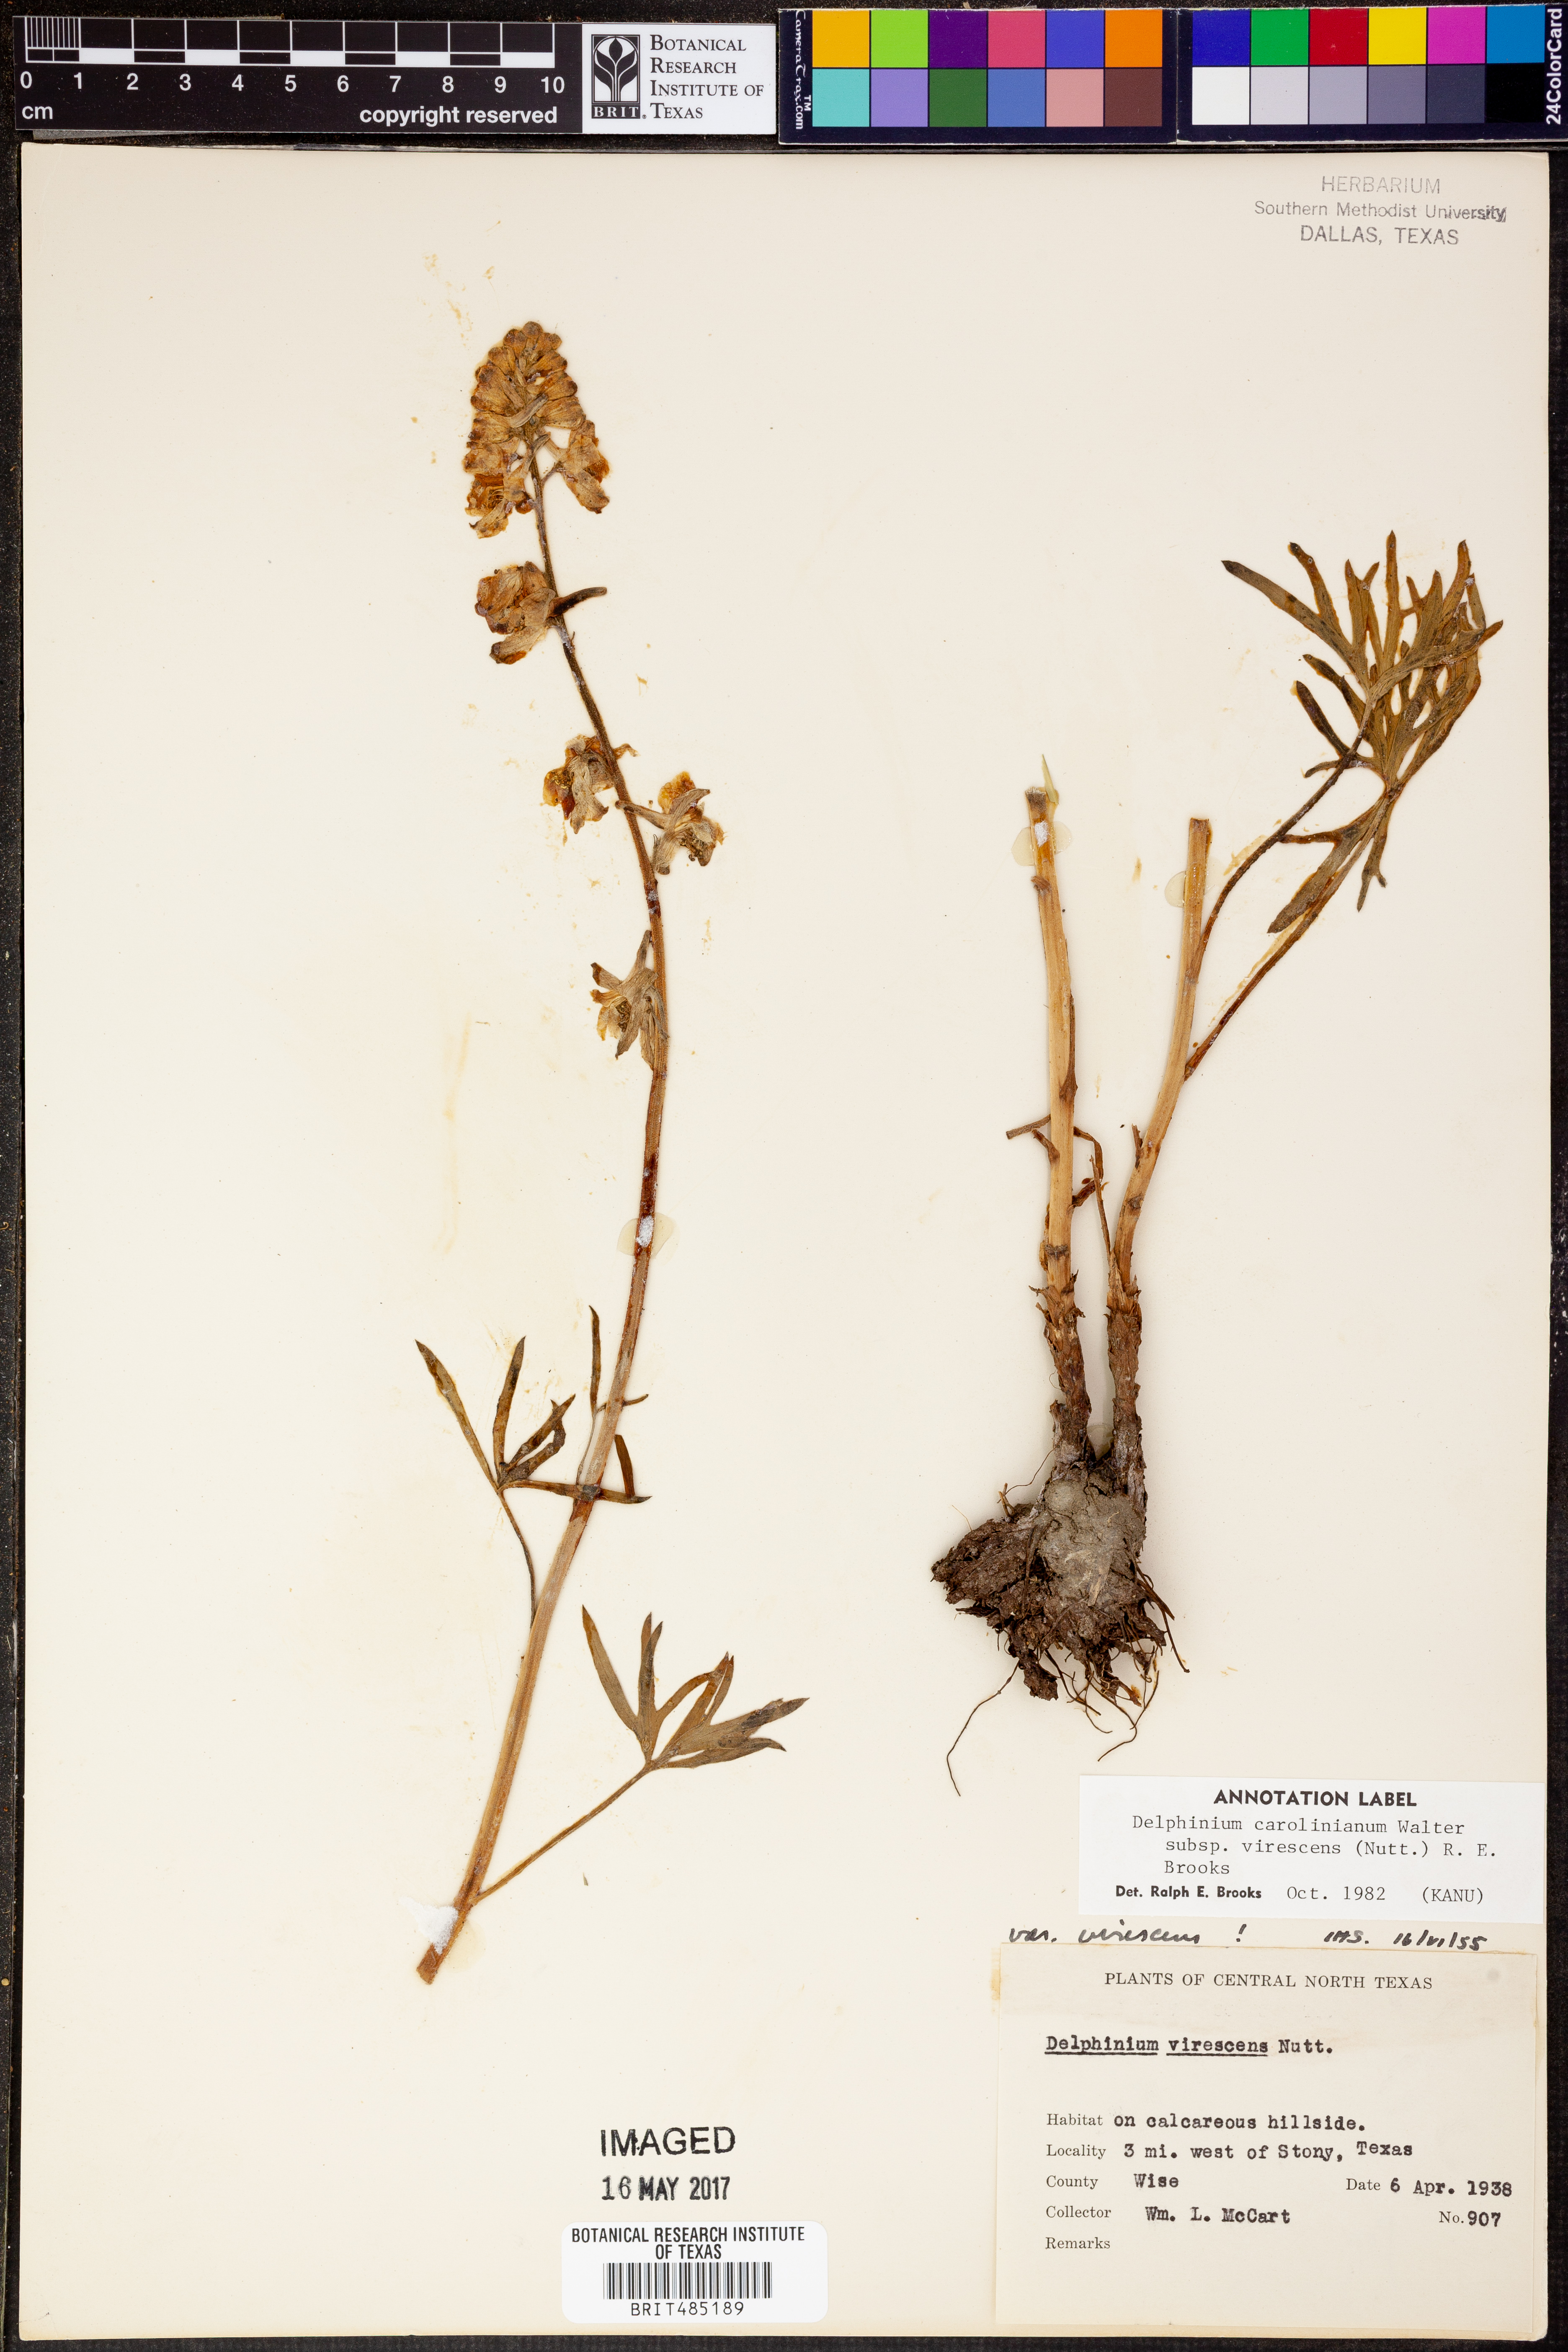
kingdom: Plantae
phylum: Tracheophyta
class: Magnoliopsida
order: Ranunculales
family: Ranunculaceae
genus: Delphinium
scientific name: Delphinium carolinianum
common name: Carolina larkspur
